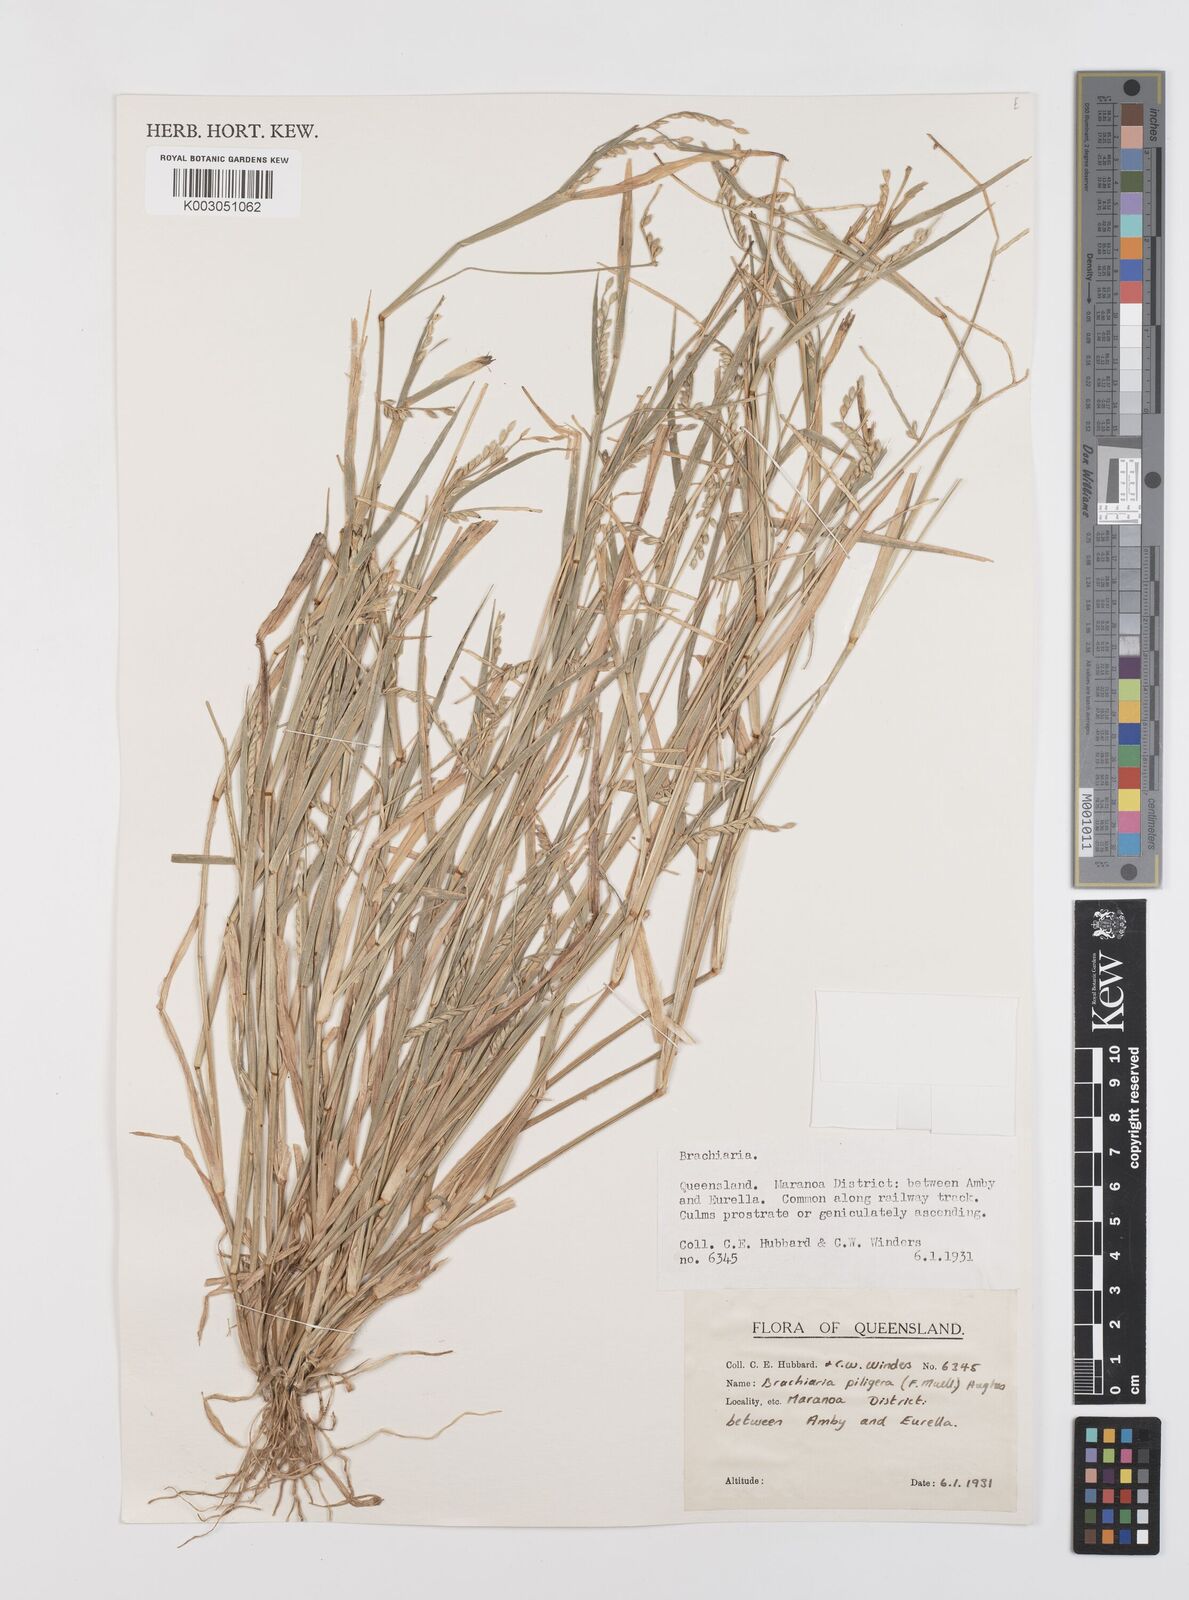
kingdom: Plantae
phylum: Tracheophyta
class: Liliopsida
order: Poales
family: Poaceae
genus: Urochloa
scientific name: Urochloa piligera
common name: Wattle signalgrass
